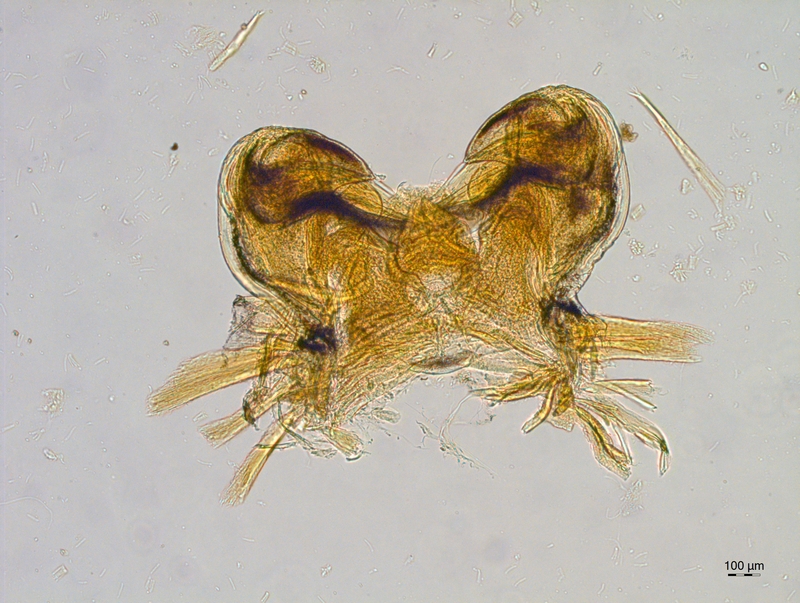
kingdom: Animalia
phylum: Arthropoda
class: Diplopoda
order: Chordeumatida
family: Attemsiidae
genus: Attemsia
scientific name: Attemsia stygia
